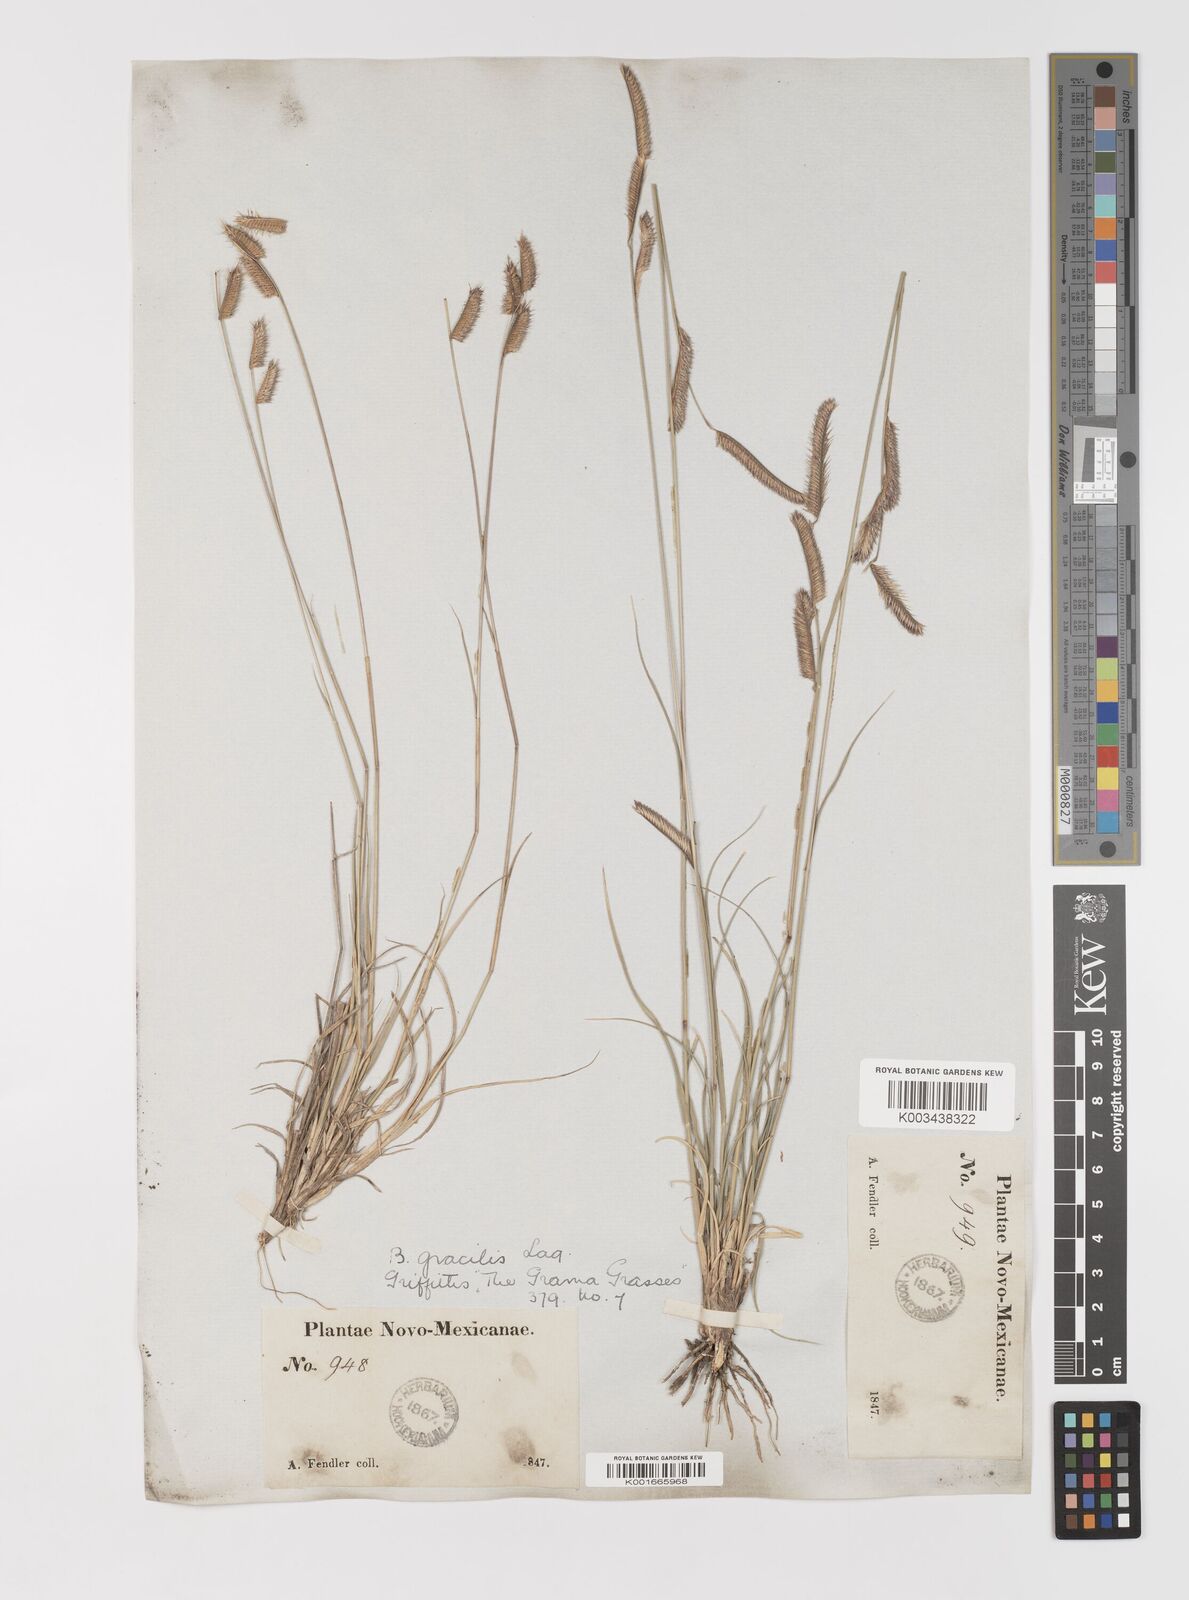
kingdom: Plantae
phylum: Tracheophyta
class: Liliopsida
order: Poales
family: Poaceae
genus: Bouteloua
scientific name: Bouteloua
